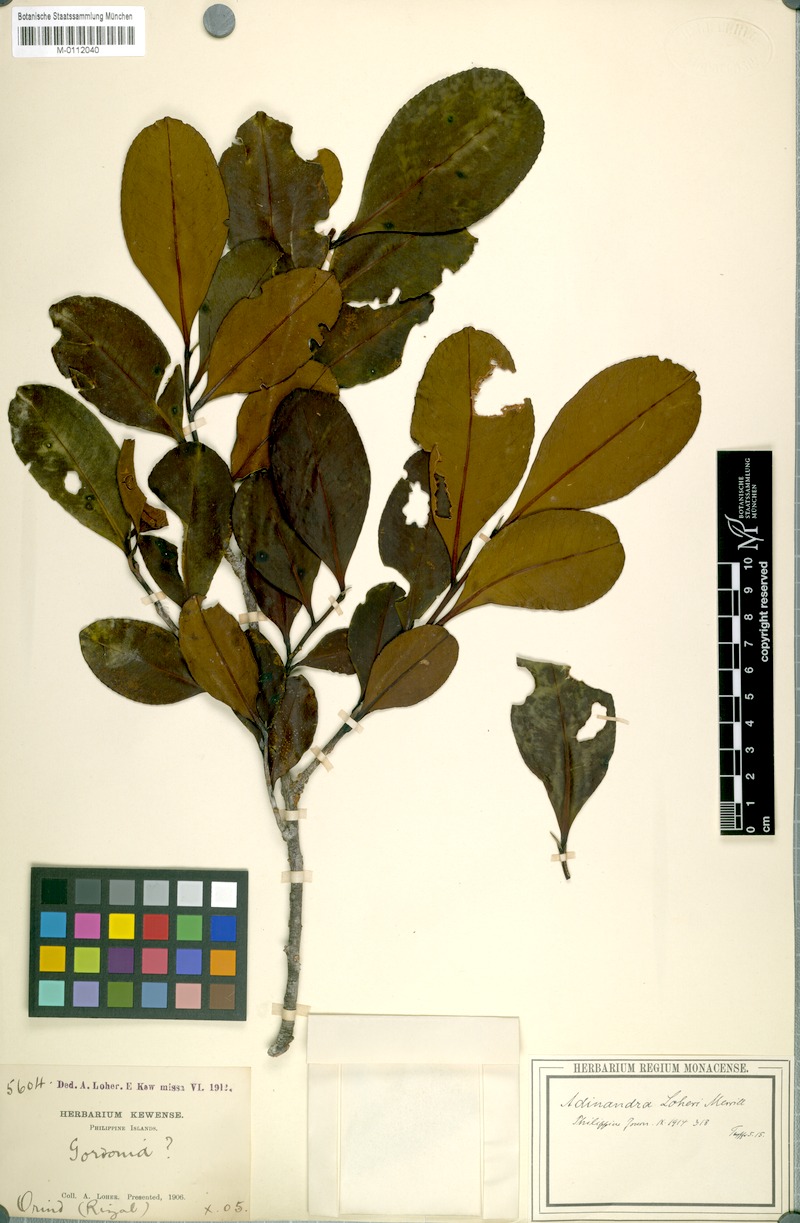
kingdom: Plantae
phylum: Tracheophyta
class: Magnoliopsida
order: Ericales
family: Pentaphylacaceae
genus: Adinandra
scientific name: Adinandra loheri
